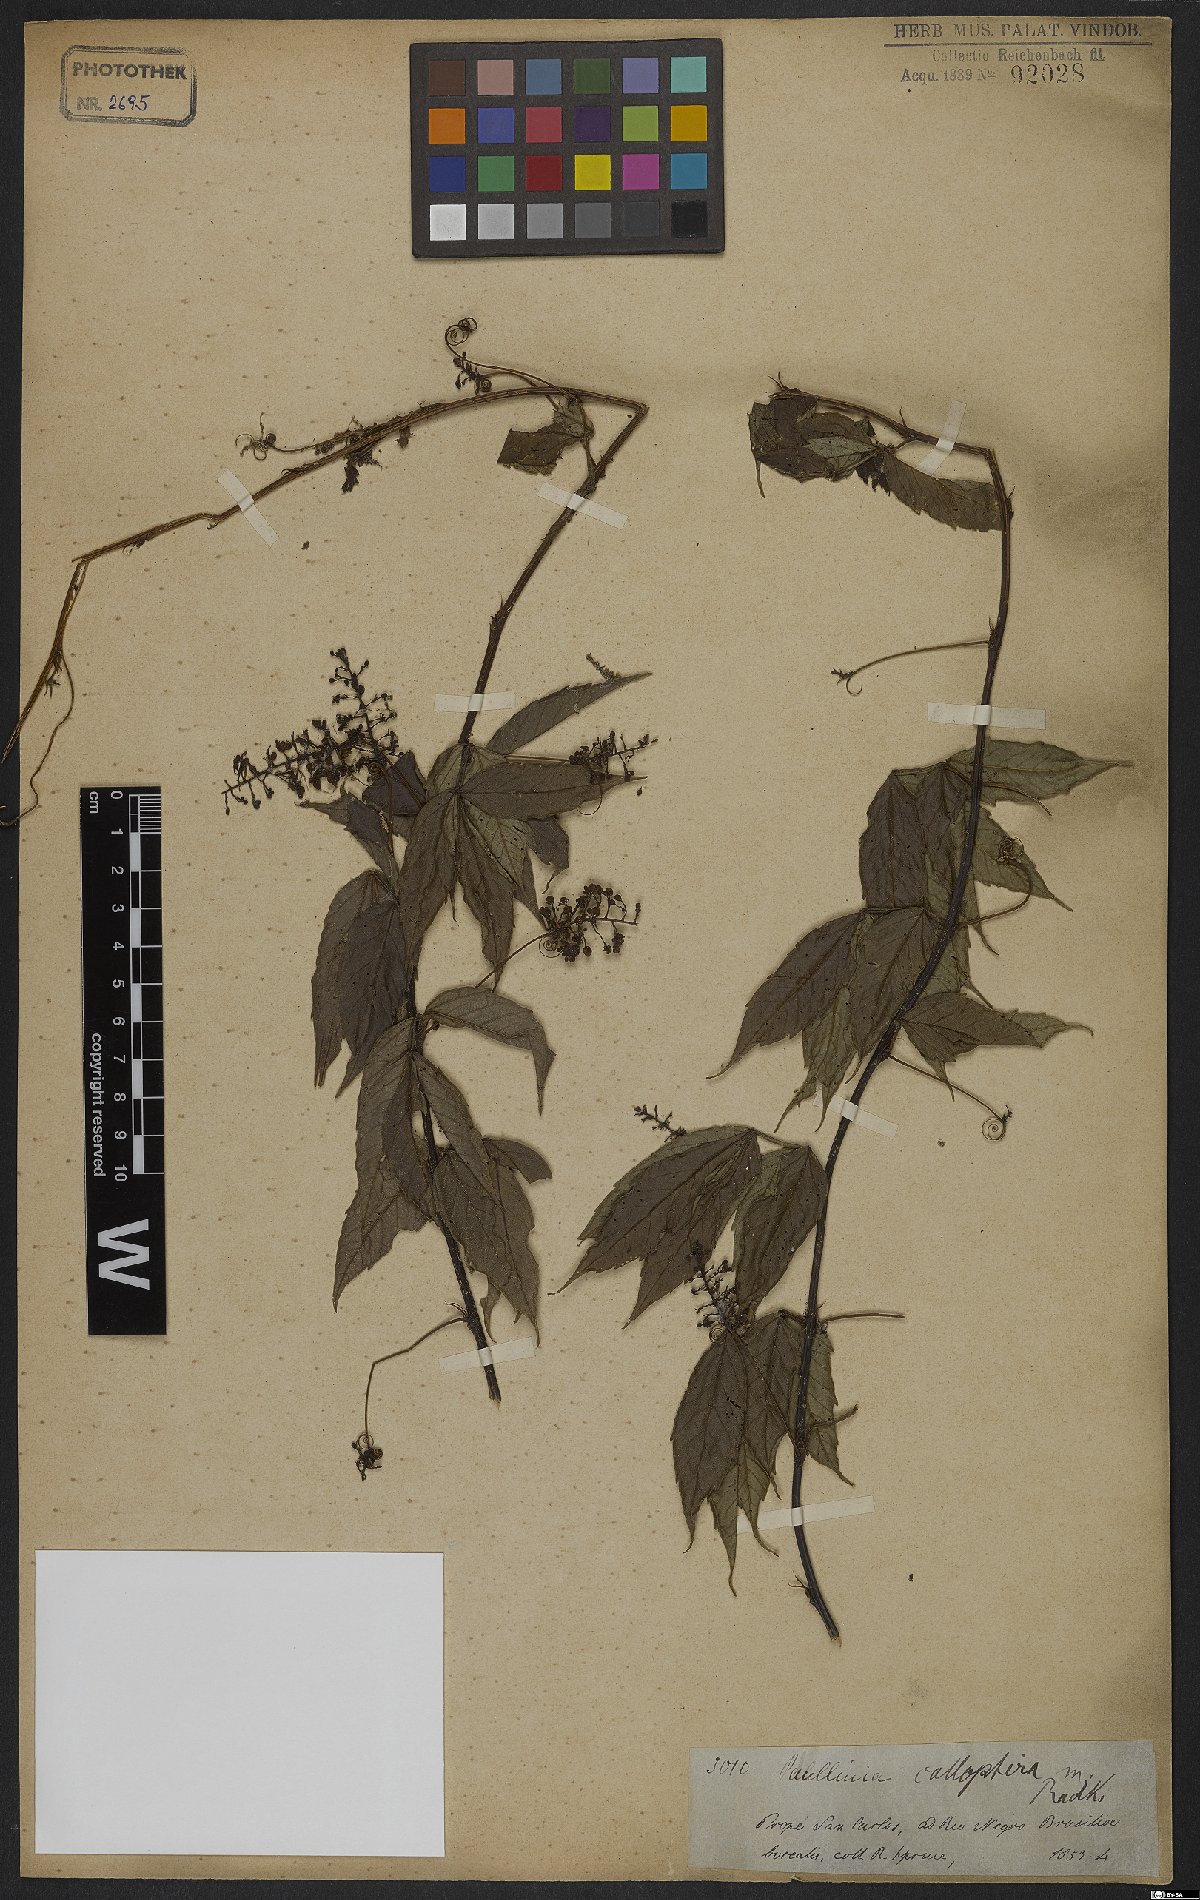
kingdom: Plantae
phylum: Tracheophyta
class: Magnoliopsida
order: Sapindales
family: Sapindaceae
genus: Paullinia
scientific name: Paullinia caloptera
